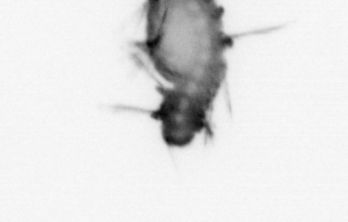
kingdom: Animalia
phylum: Annelida
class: Polychaeta
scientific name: Polychaeta
